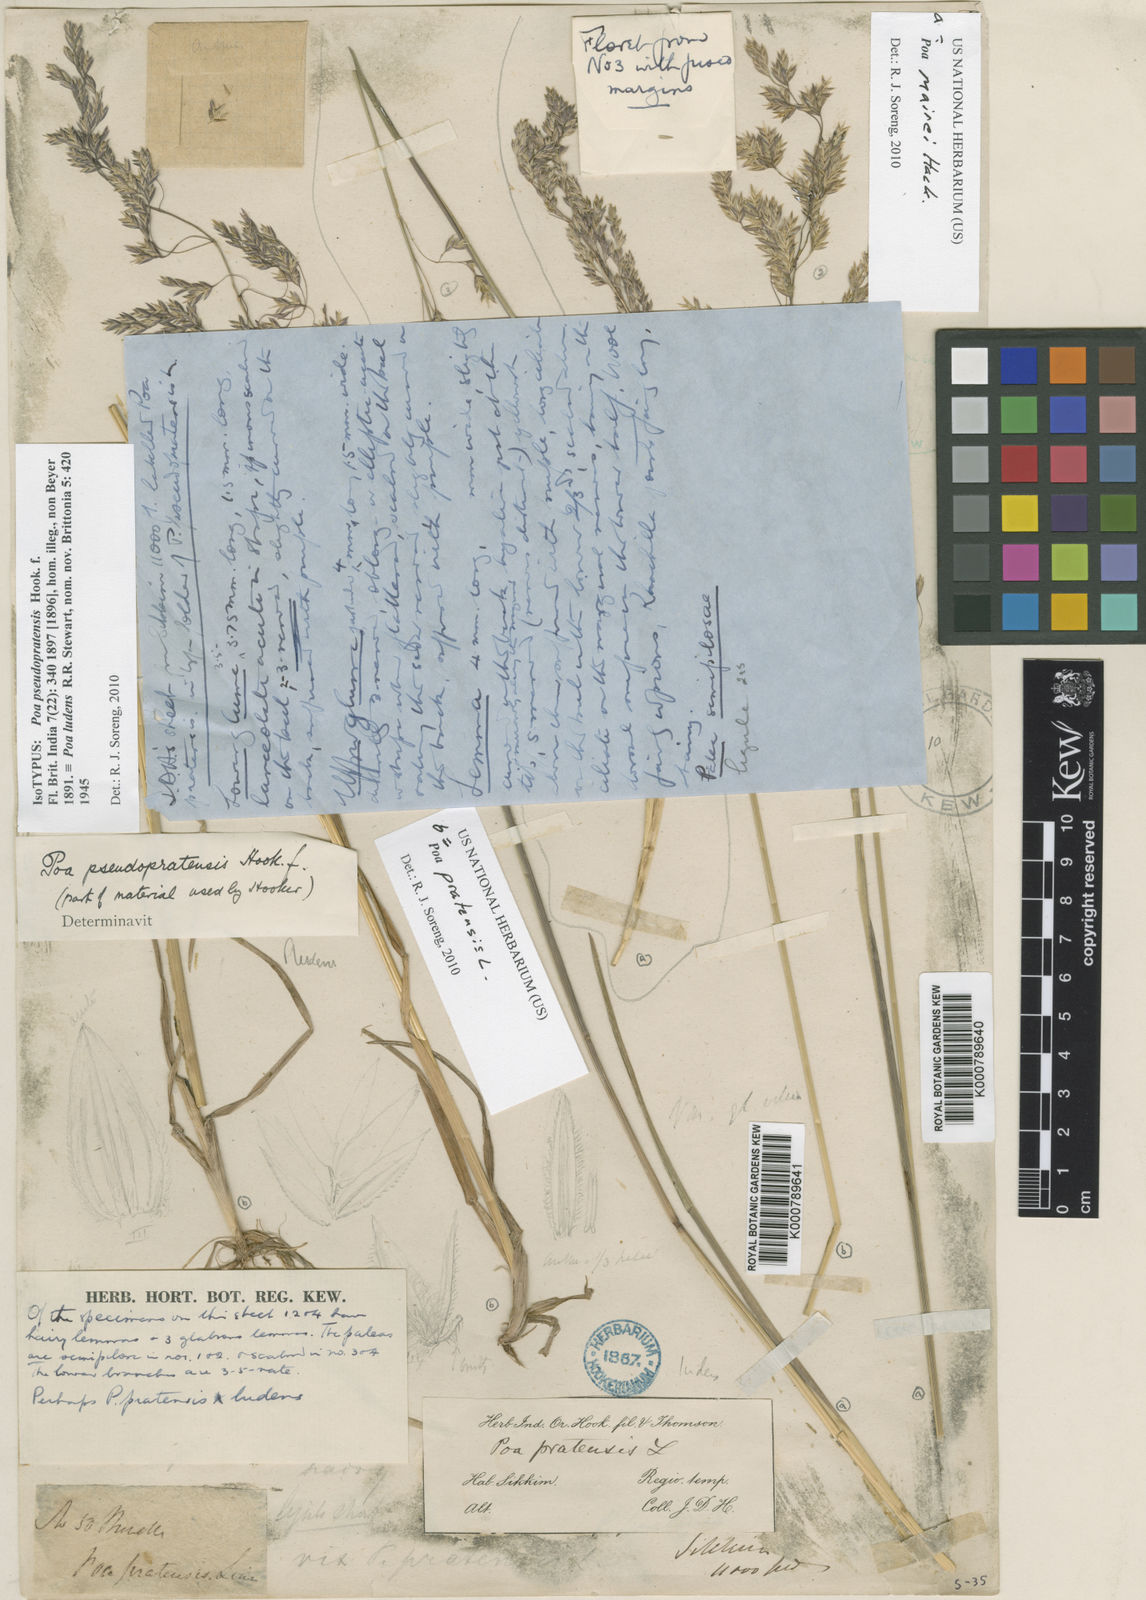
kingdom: Plantae
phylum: Tracheophyta
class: Liliopsida
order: Poales
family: Poaceae
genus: Poa
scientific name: Poa pratensis
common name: Kentucky bluegrass
